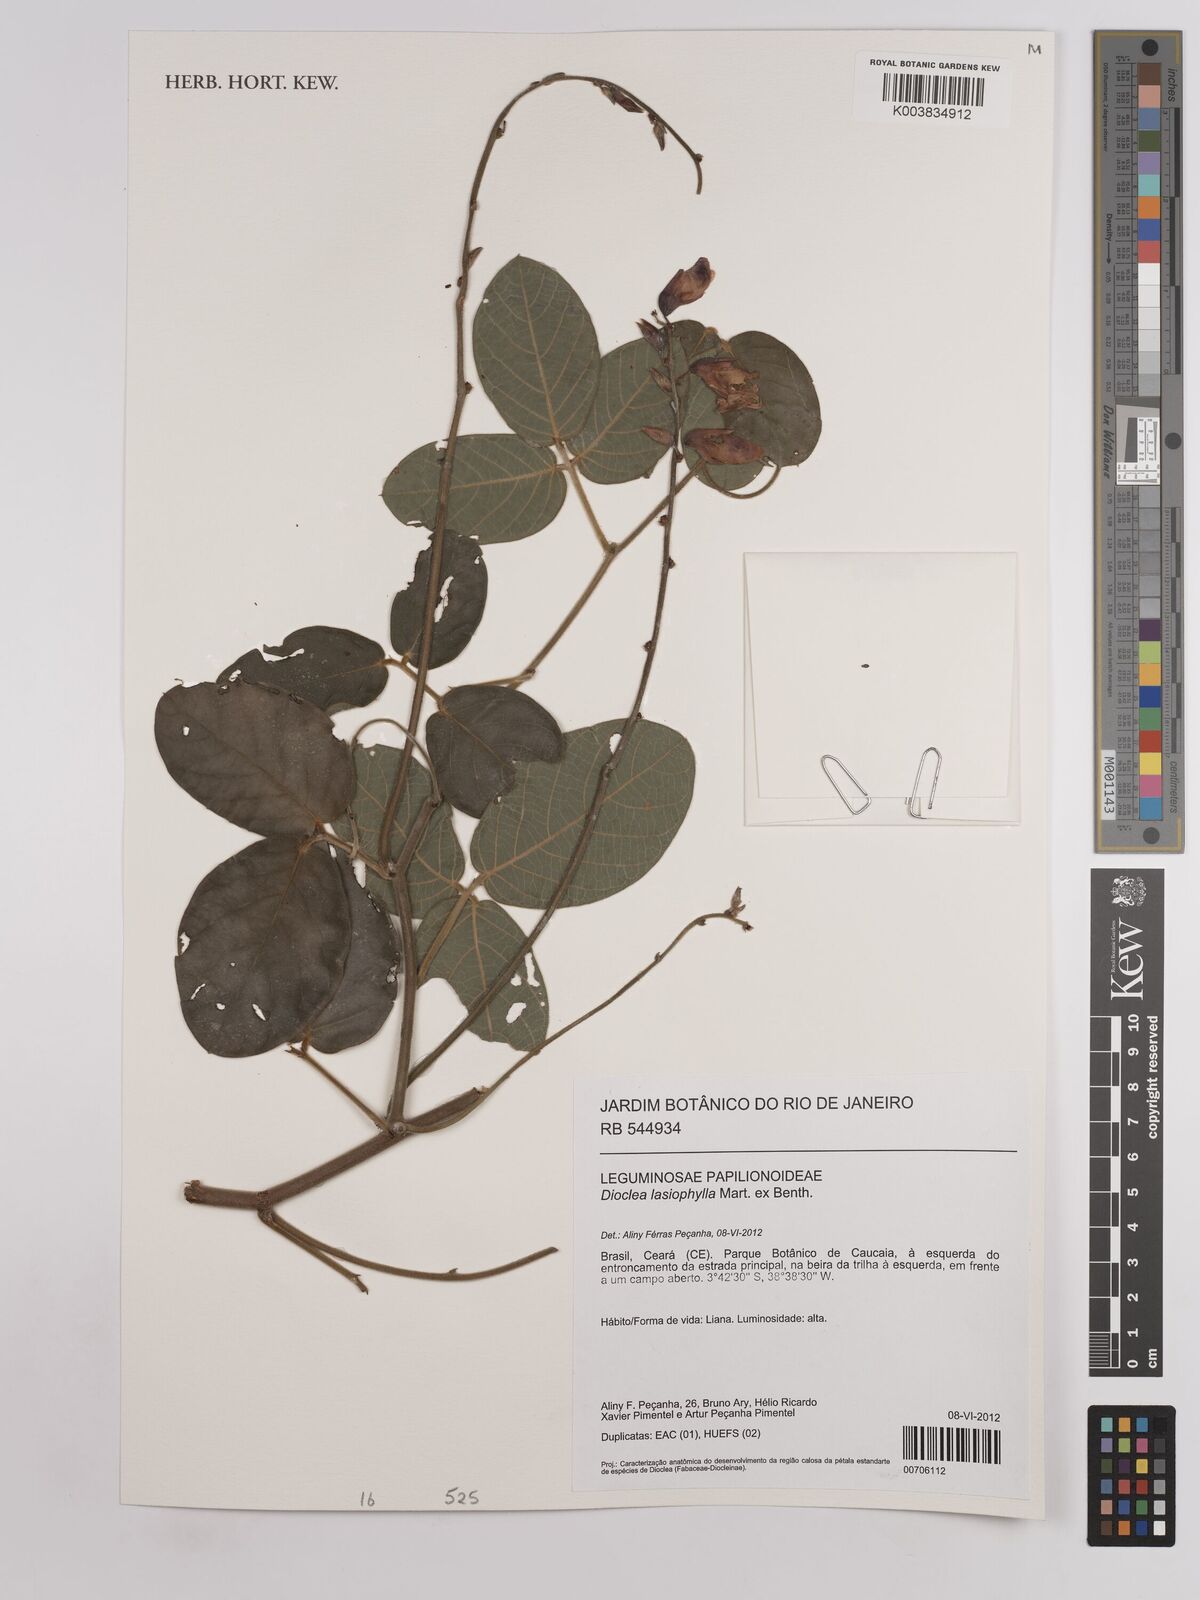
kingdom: Plantae
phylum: Tracheophyta
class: Magnoliopsida
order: Fabales
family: Fabaceae
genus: Dioclea
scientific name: Dioclea lasiophylla
